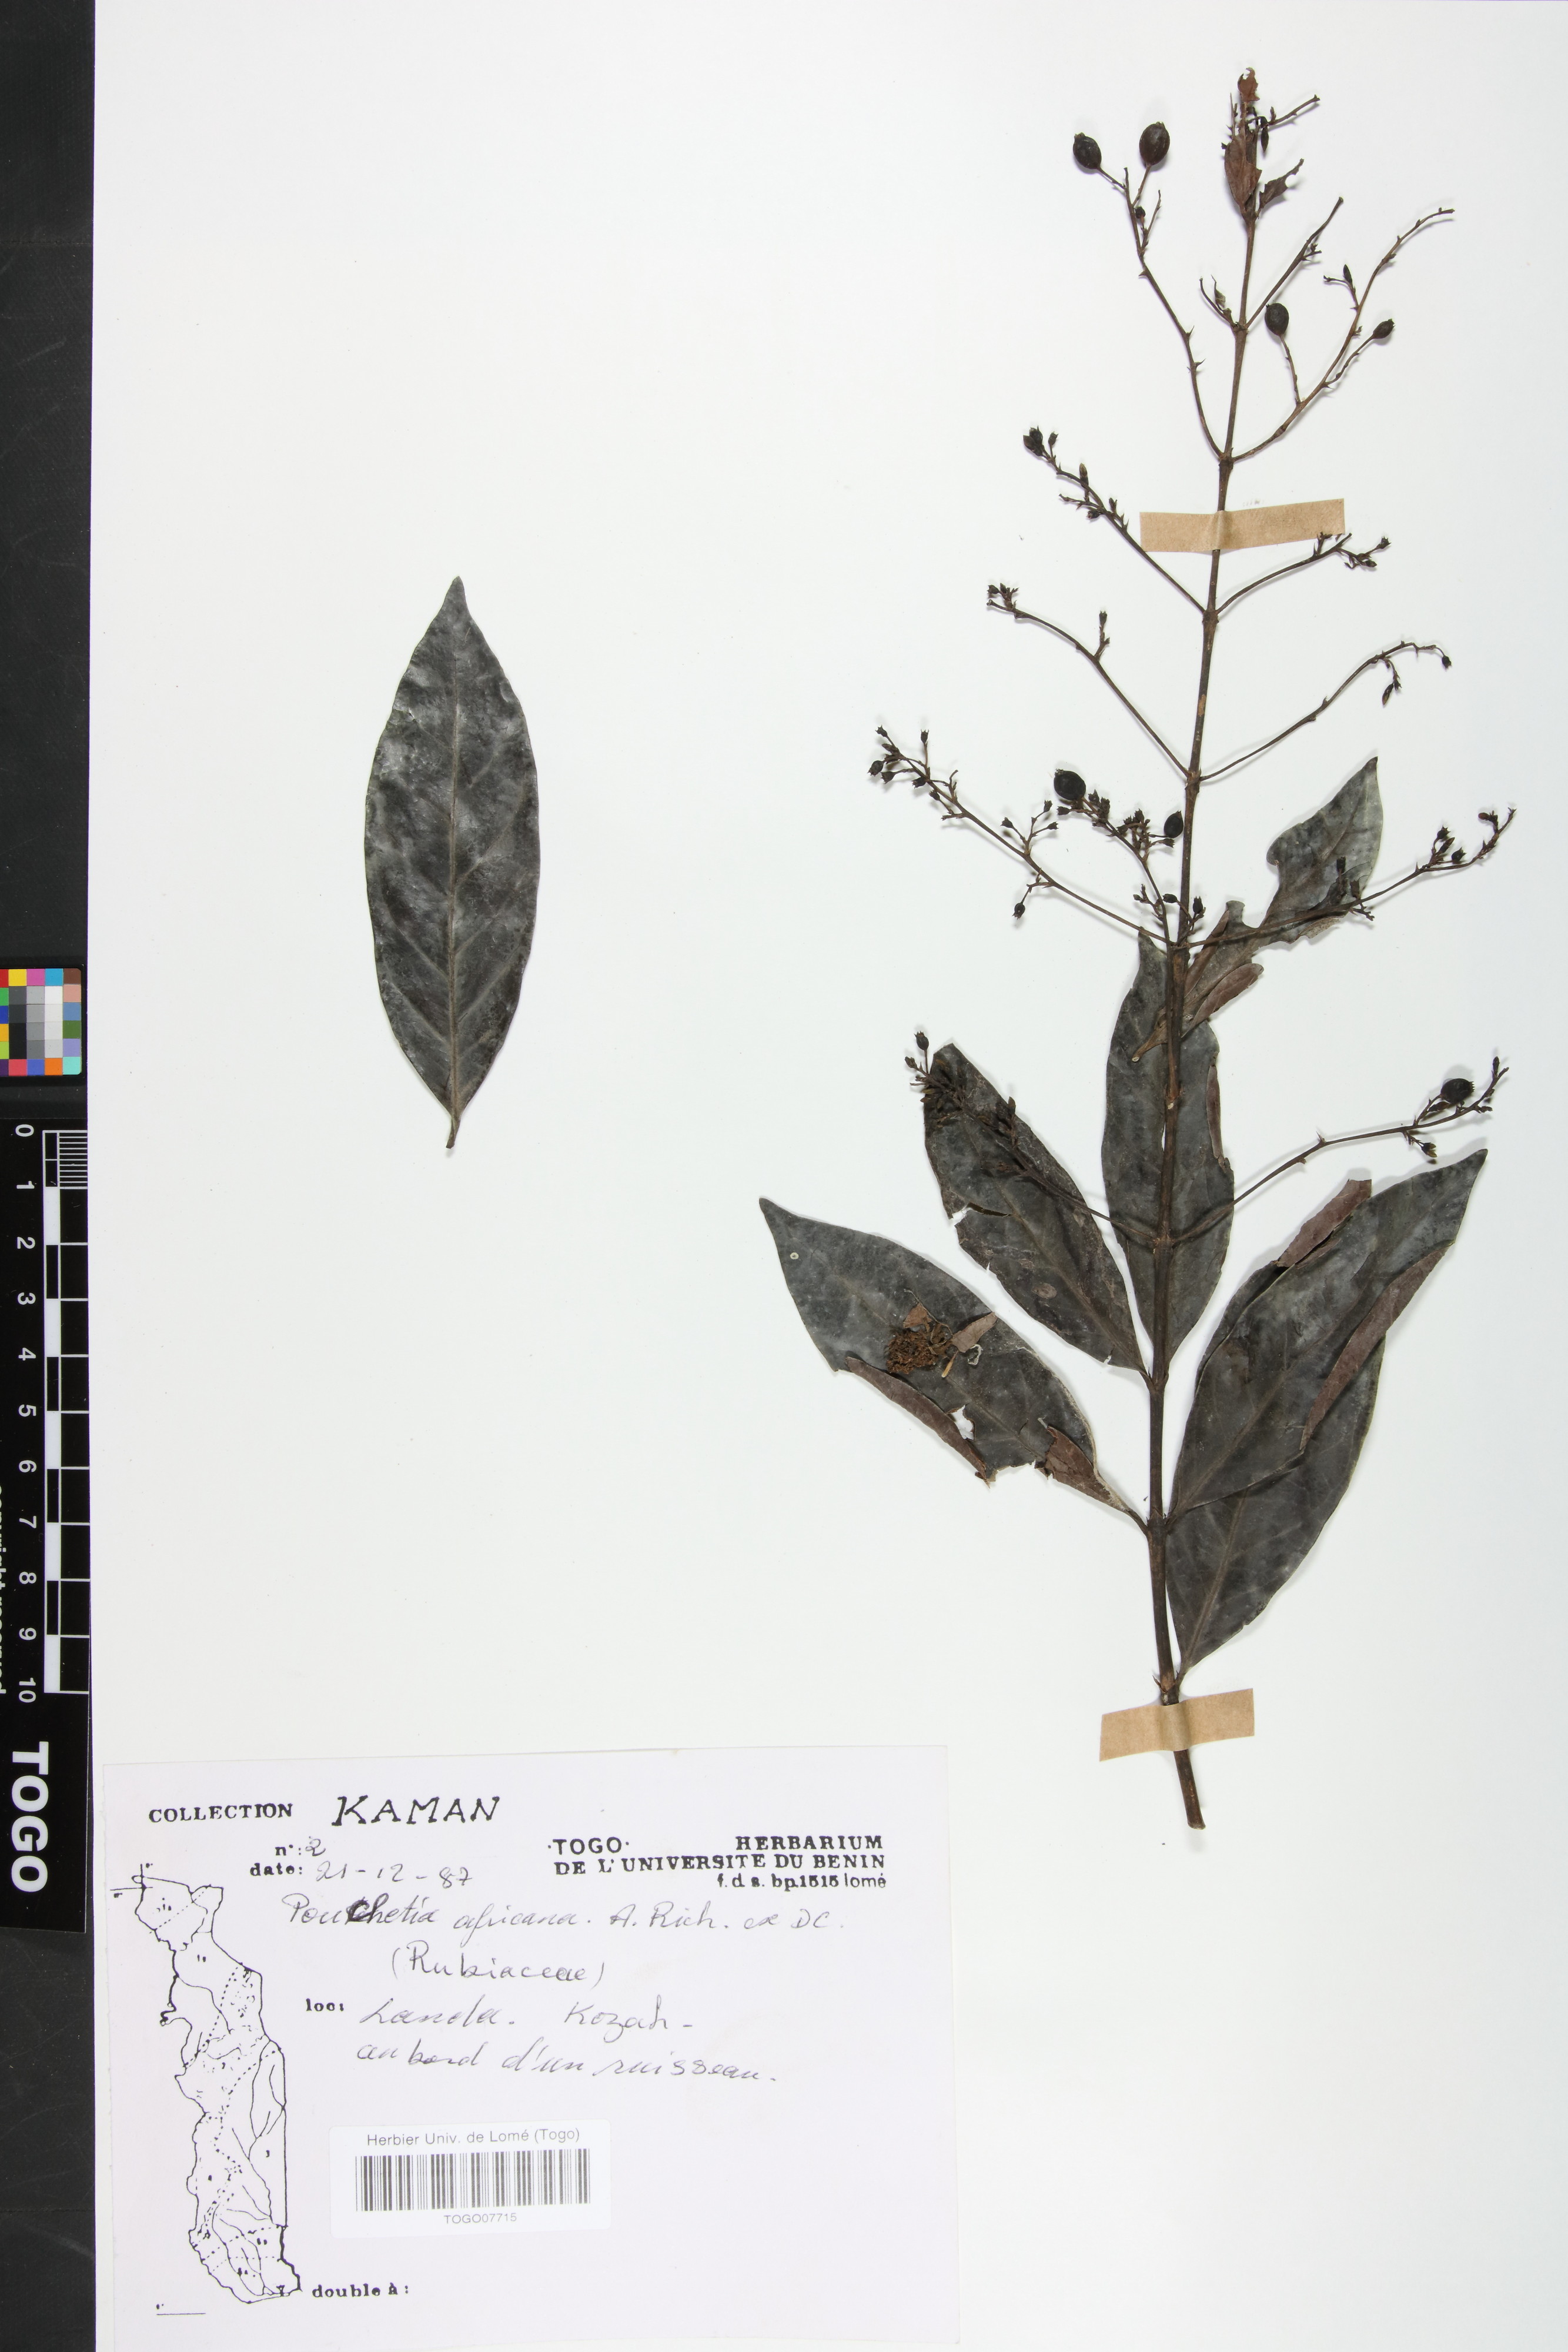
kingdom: Plantae
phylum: Tracheophyta
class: Magnoliopsida
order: Gentianales
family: Rubiaceae
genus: Pouchetia
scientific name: Pouchetia africana
